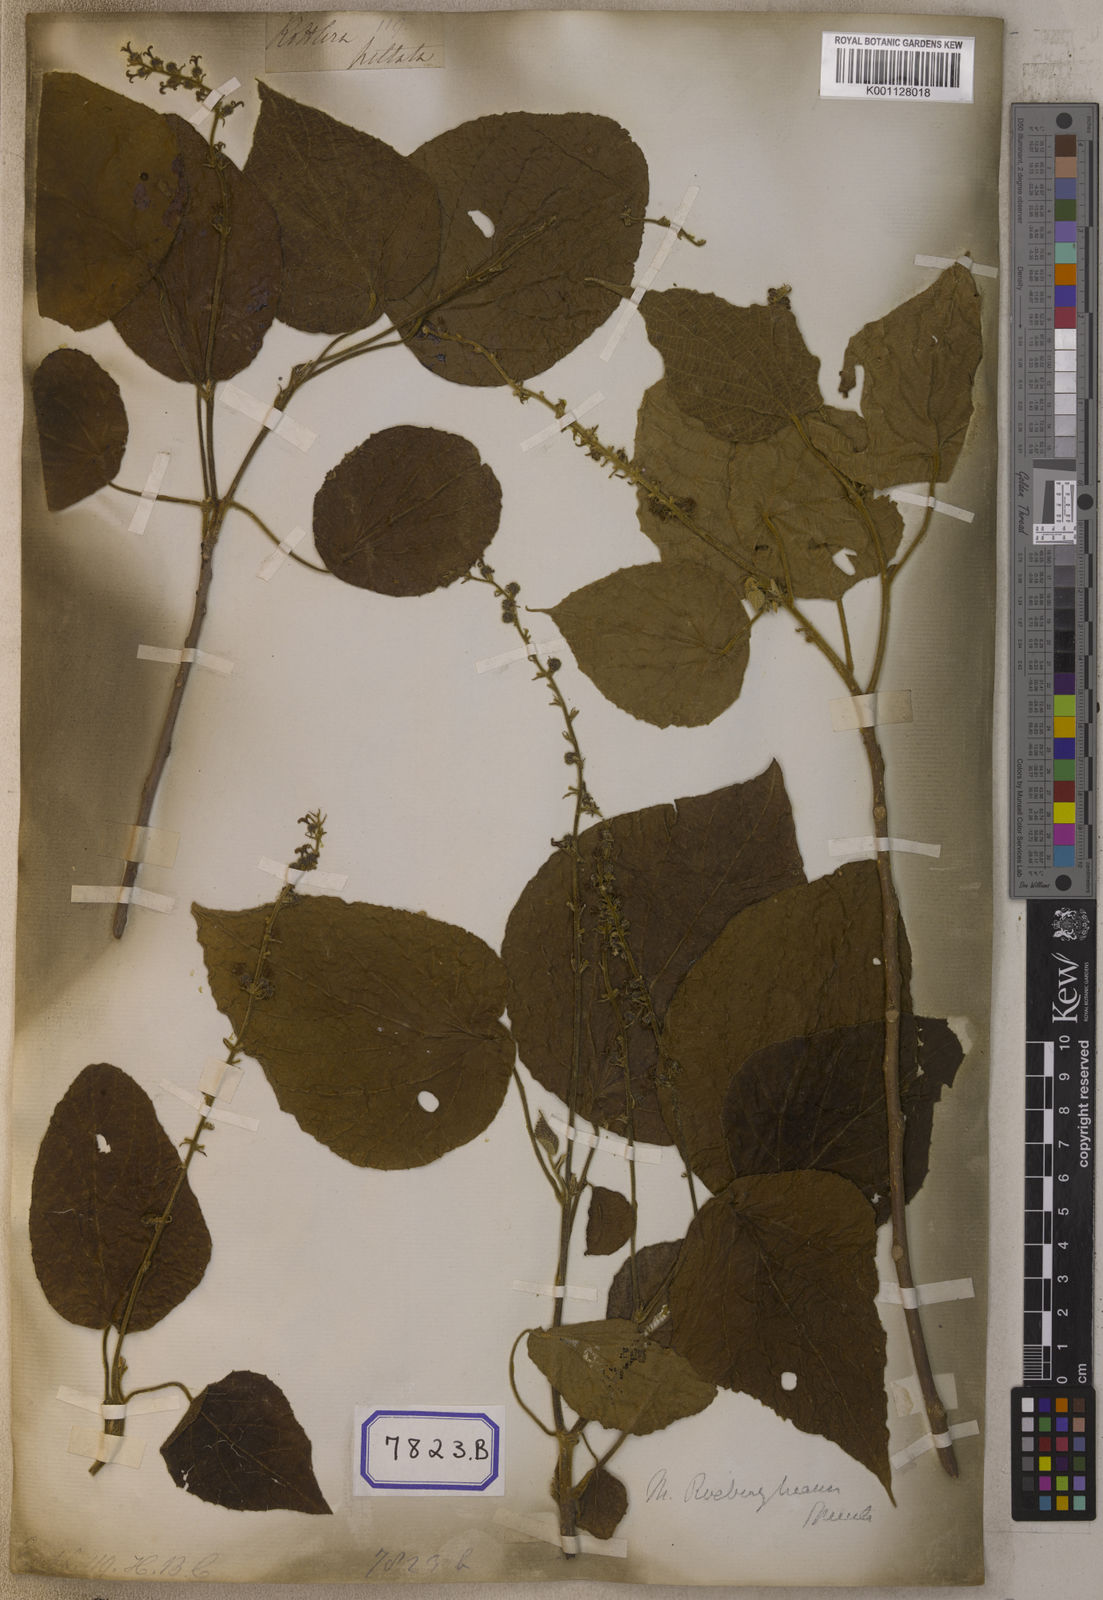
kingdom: Plantae
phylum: Tracheophyta
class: Magnoliopsida
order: Malpighiales
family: Euphorbiaceae
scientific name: Euphorbiaceae
